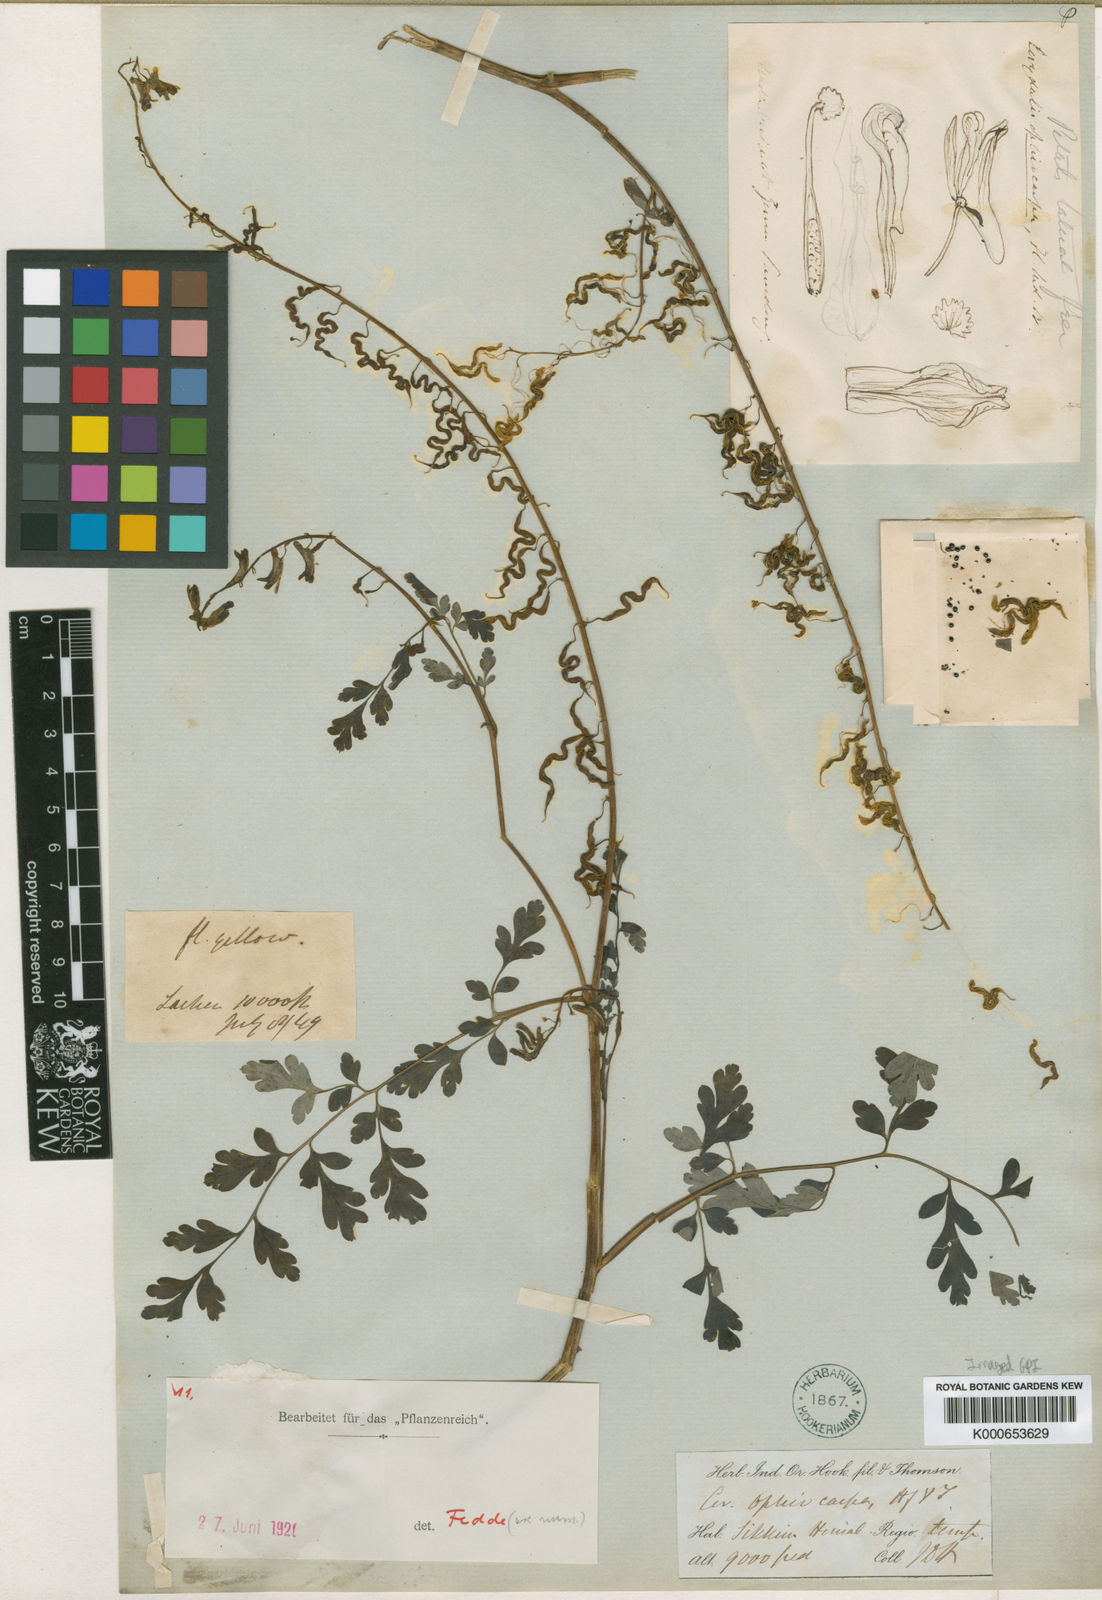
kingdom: Plantae
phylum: Tracheophyta
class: Magnoliopsida
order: Ranunculales
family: Papaveraceae
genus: Corydalis
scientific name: Corydalis ophiocarpa
